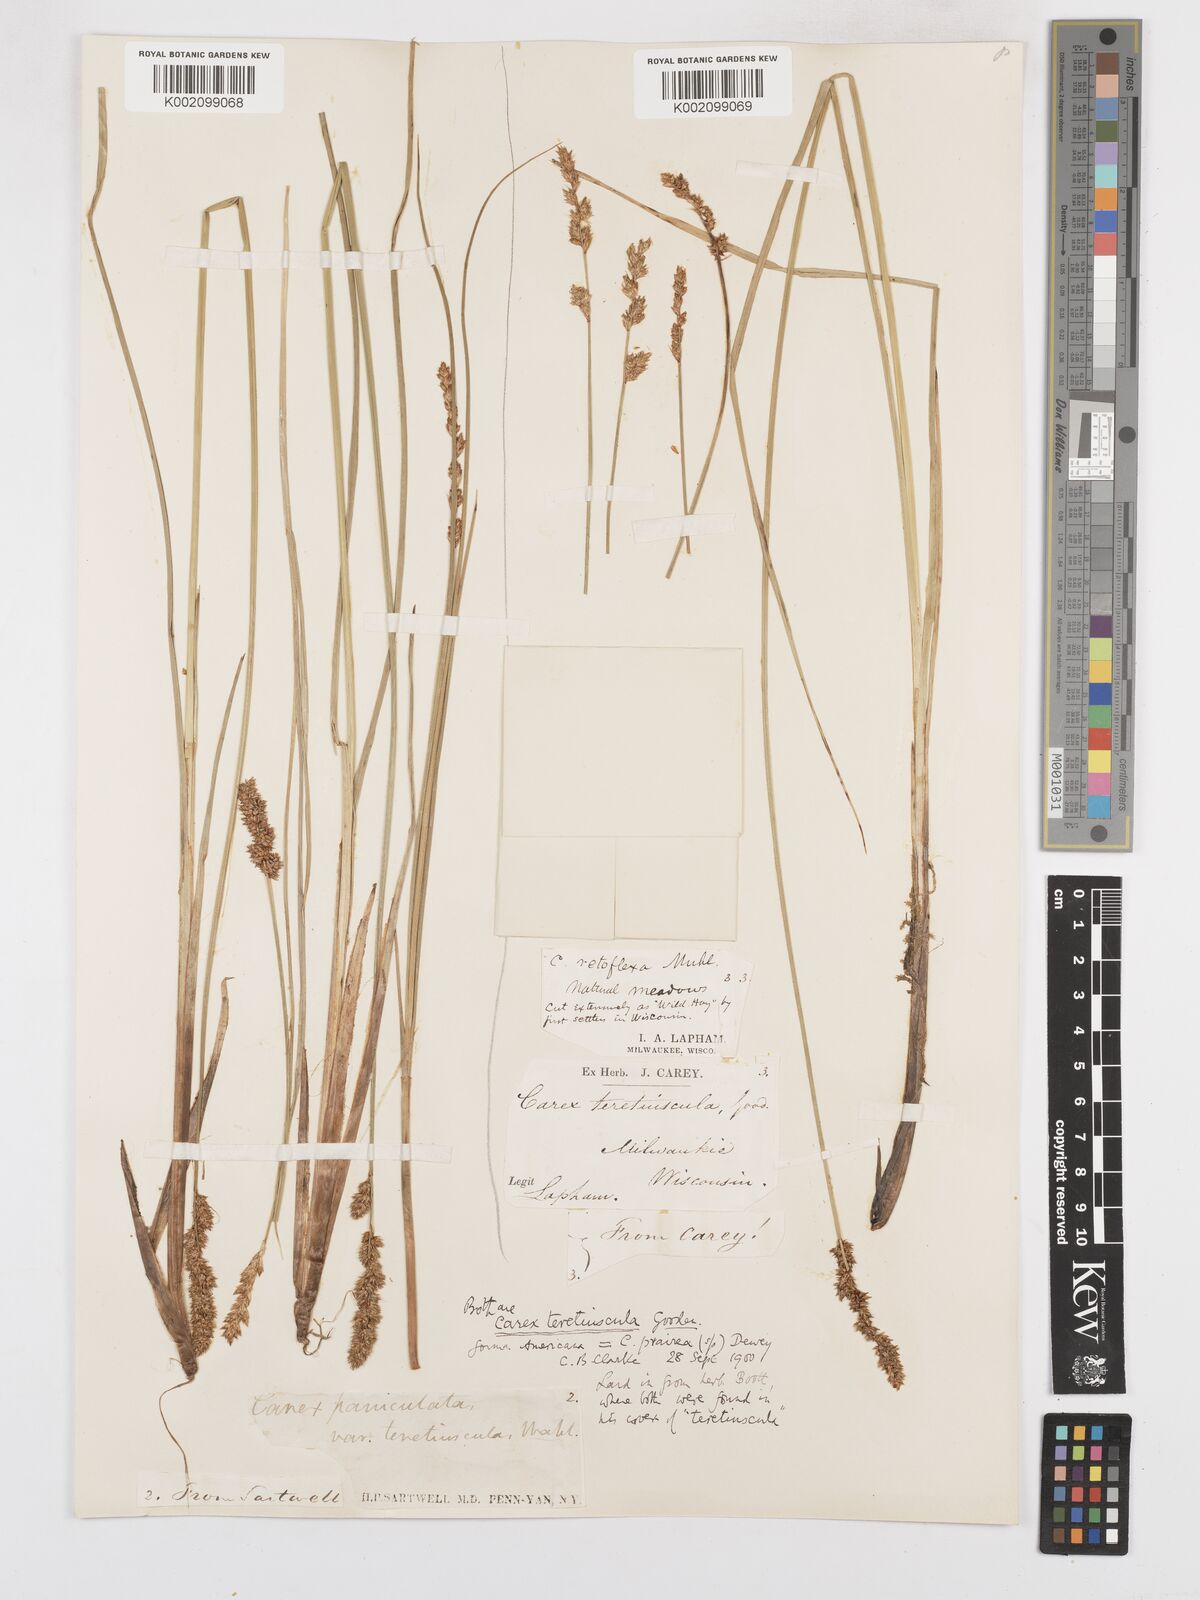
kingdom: Plantae
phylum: Tracheophyta
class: Liliopsida
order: Poales
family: Cyperaceae
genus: Carex
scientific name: Carex diandra
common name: Lesser tussock-sedge
